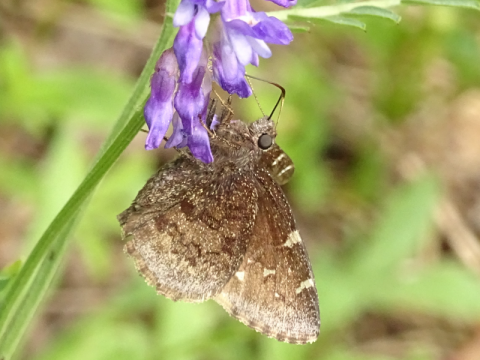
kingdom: Animalia
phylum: Arthropoda
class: Insecta
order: Lepidoptera
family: Hesperiidae
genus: Autochton
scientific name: Autochton
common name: Northern Cloudywing
